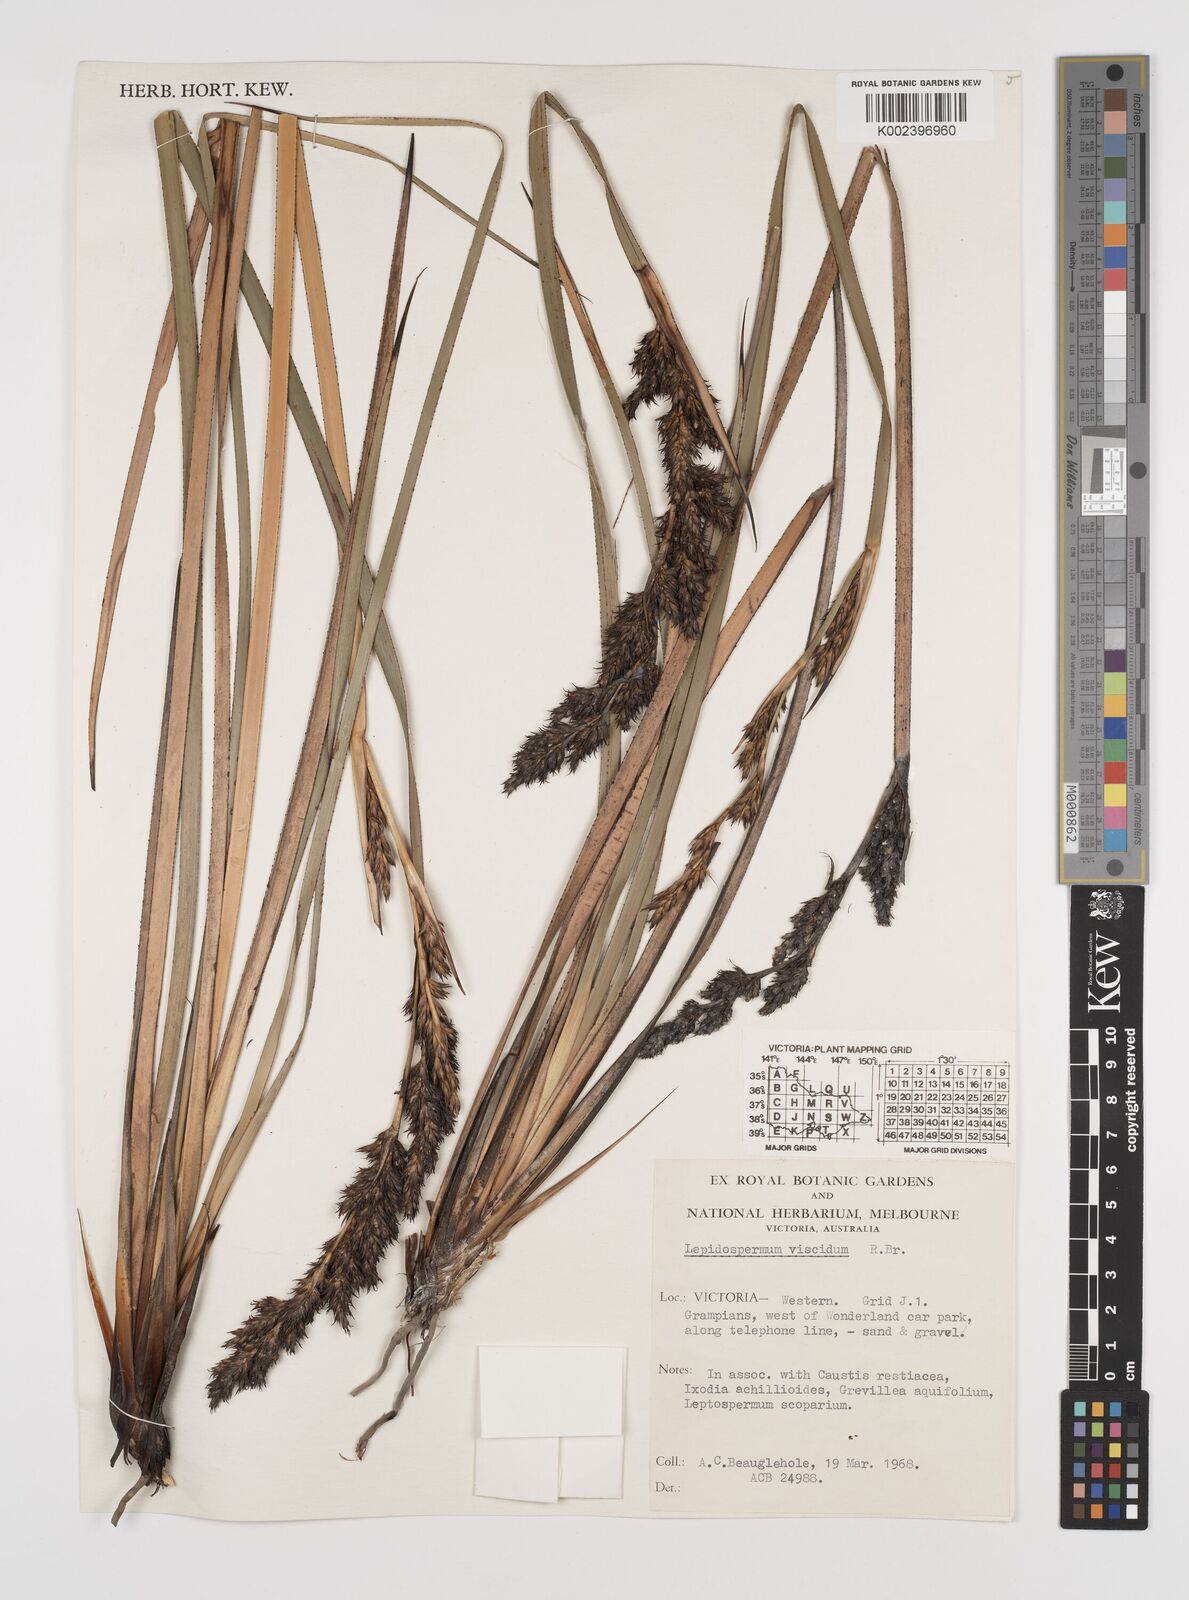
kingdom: Plantae
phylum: Tracheophyta
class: Liliopsida
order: Poales
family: Cyperaceae
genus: Lepidosperma
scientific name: Lepidosperma viscidum
